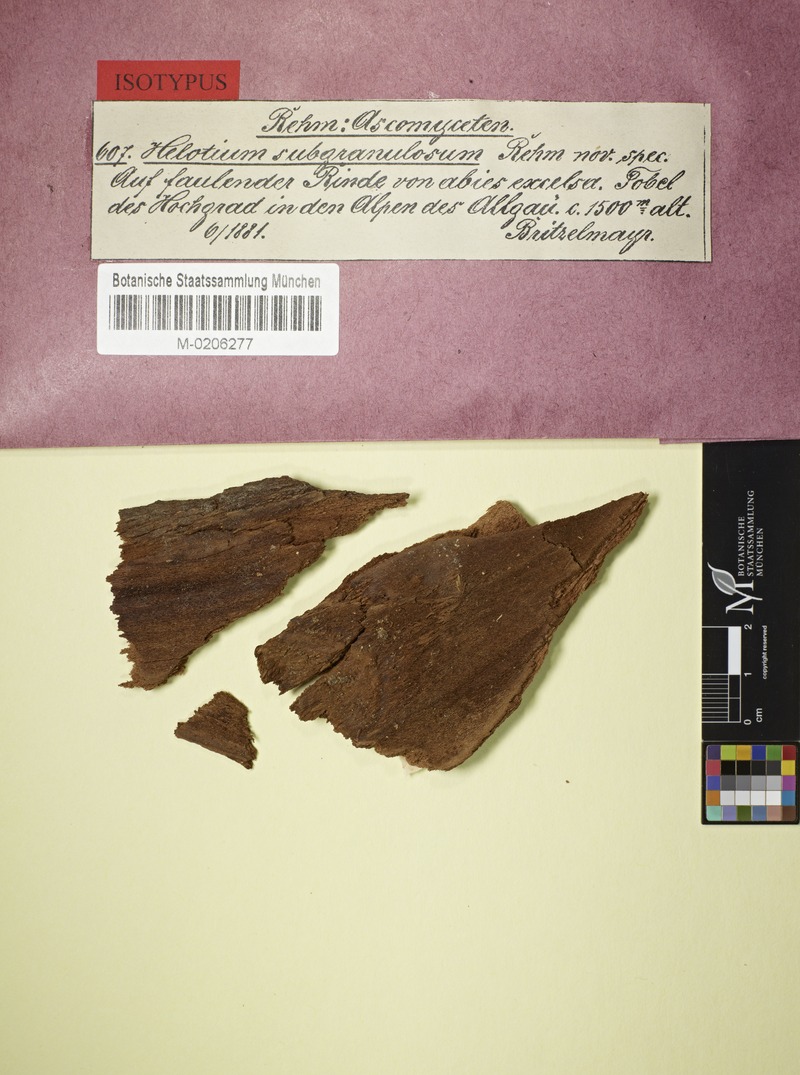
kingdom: Fungi
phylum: Ascomycota
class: Leotiomycetes
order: Helotiales
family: Calloriaceae
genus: Micropodia
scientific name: Micropodia subgranulosa
